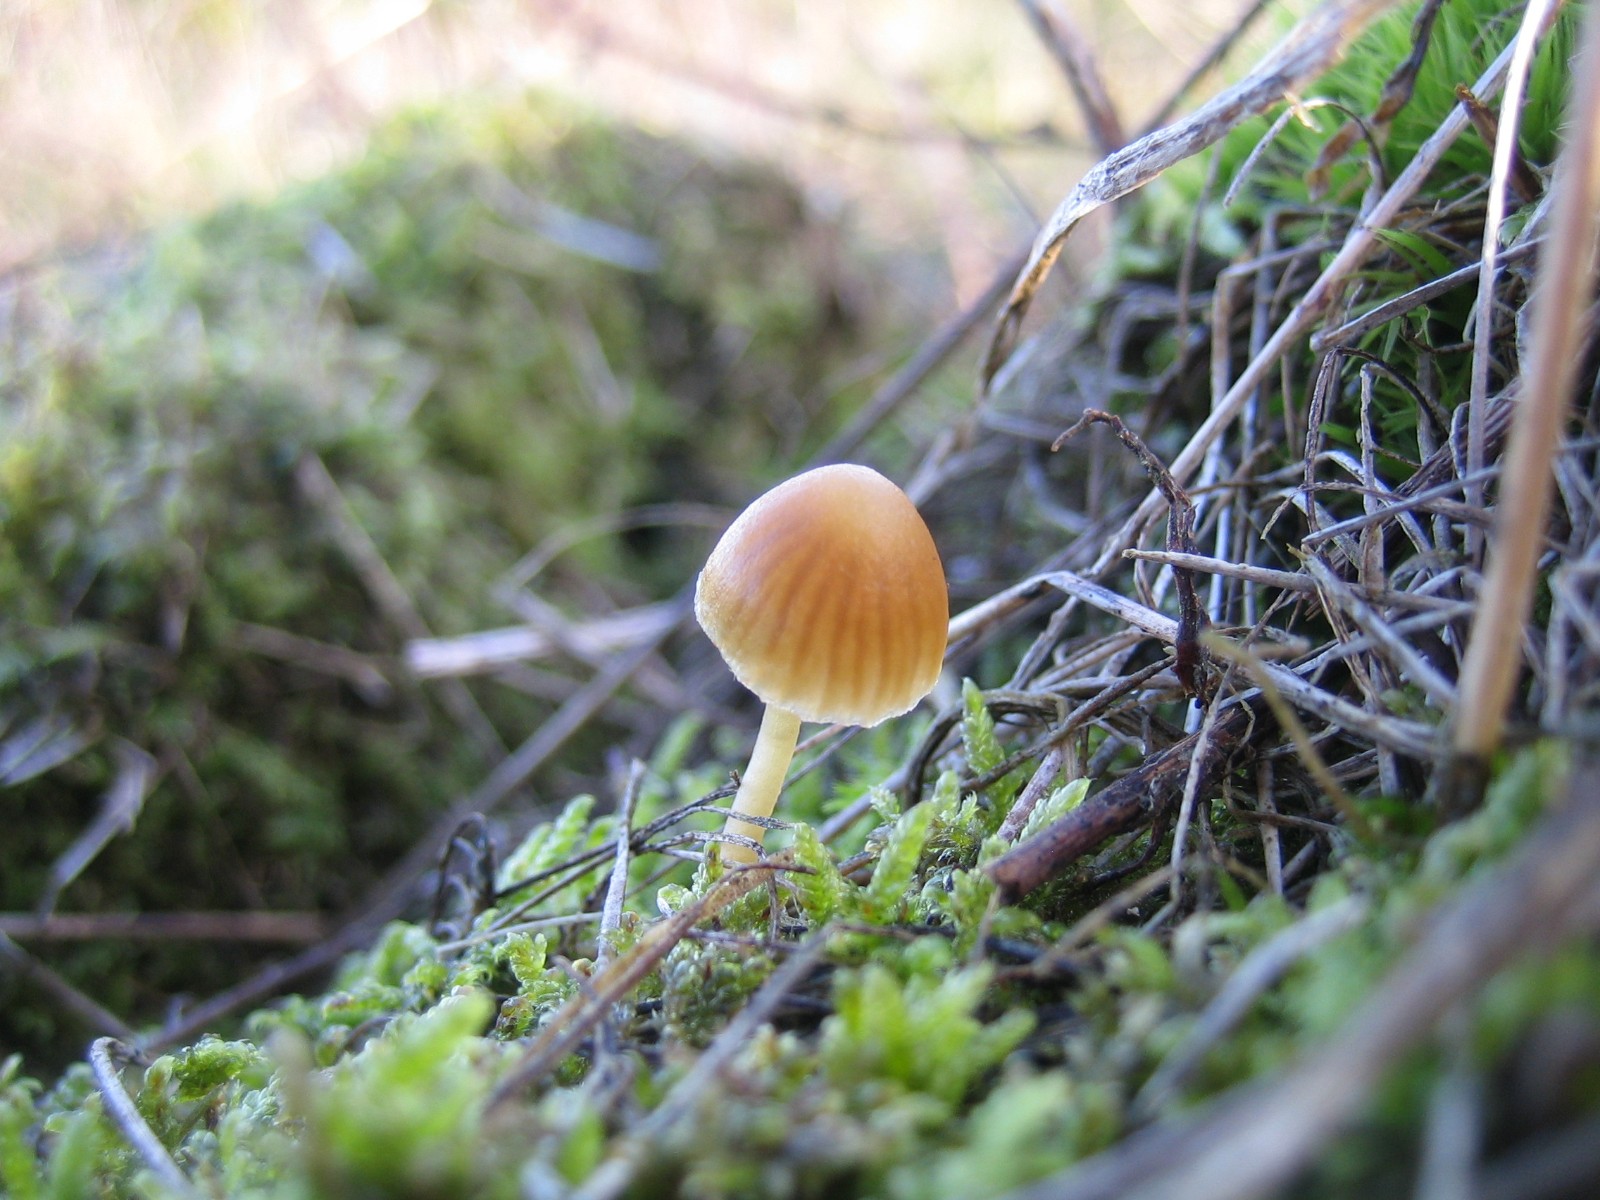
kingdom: Fungi
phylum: Basidiomycota
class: Agaricomycetes
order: Agaricales
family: Hymenogastraceae
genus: Galerina
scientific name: Galerina
